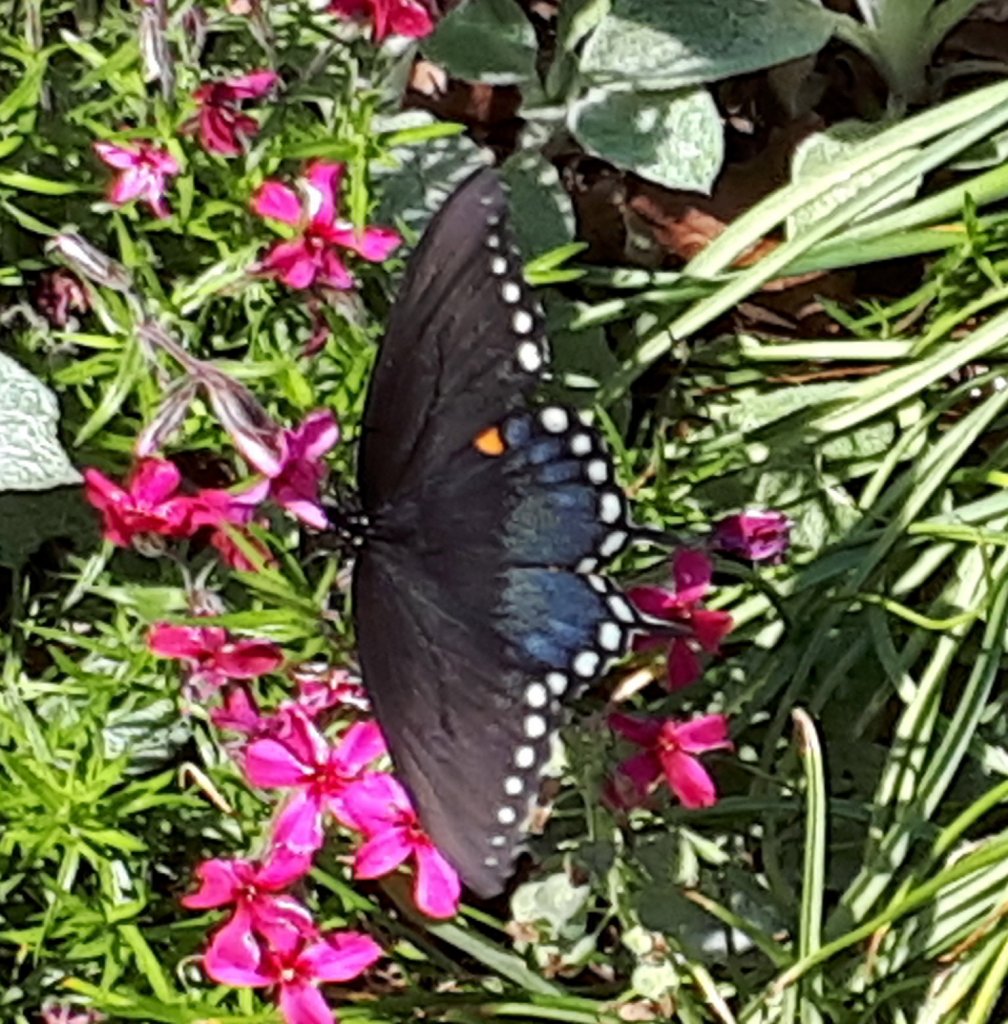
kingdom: Animalia
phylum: Arthropoda
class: Insecta
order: Lepidoptera
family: Papilionidae
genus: Pterourus
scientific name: Pterourus troilus
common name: Spicebush Swallowtail
